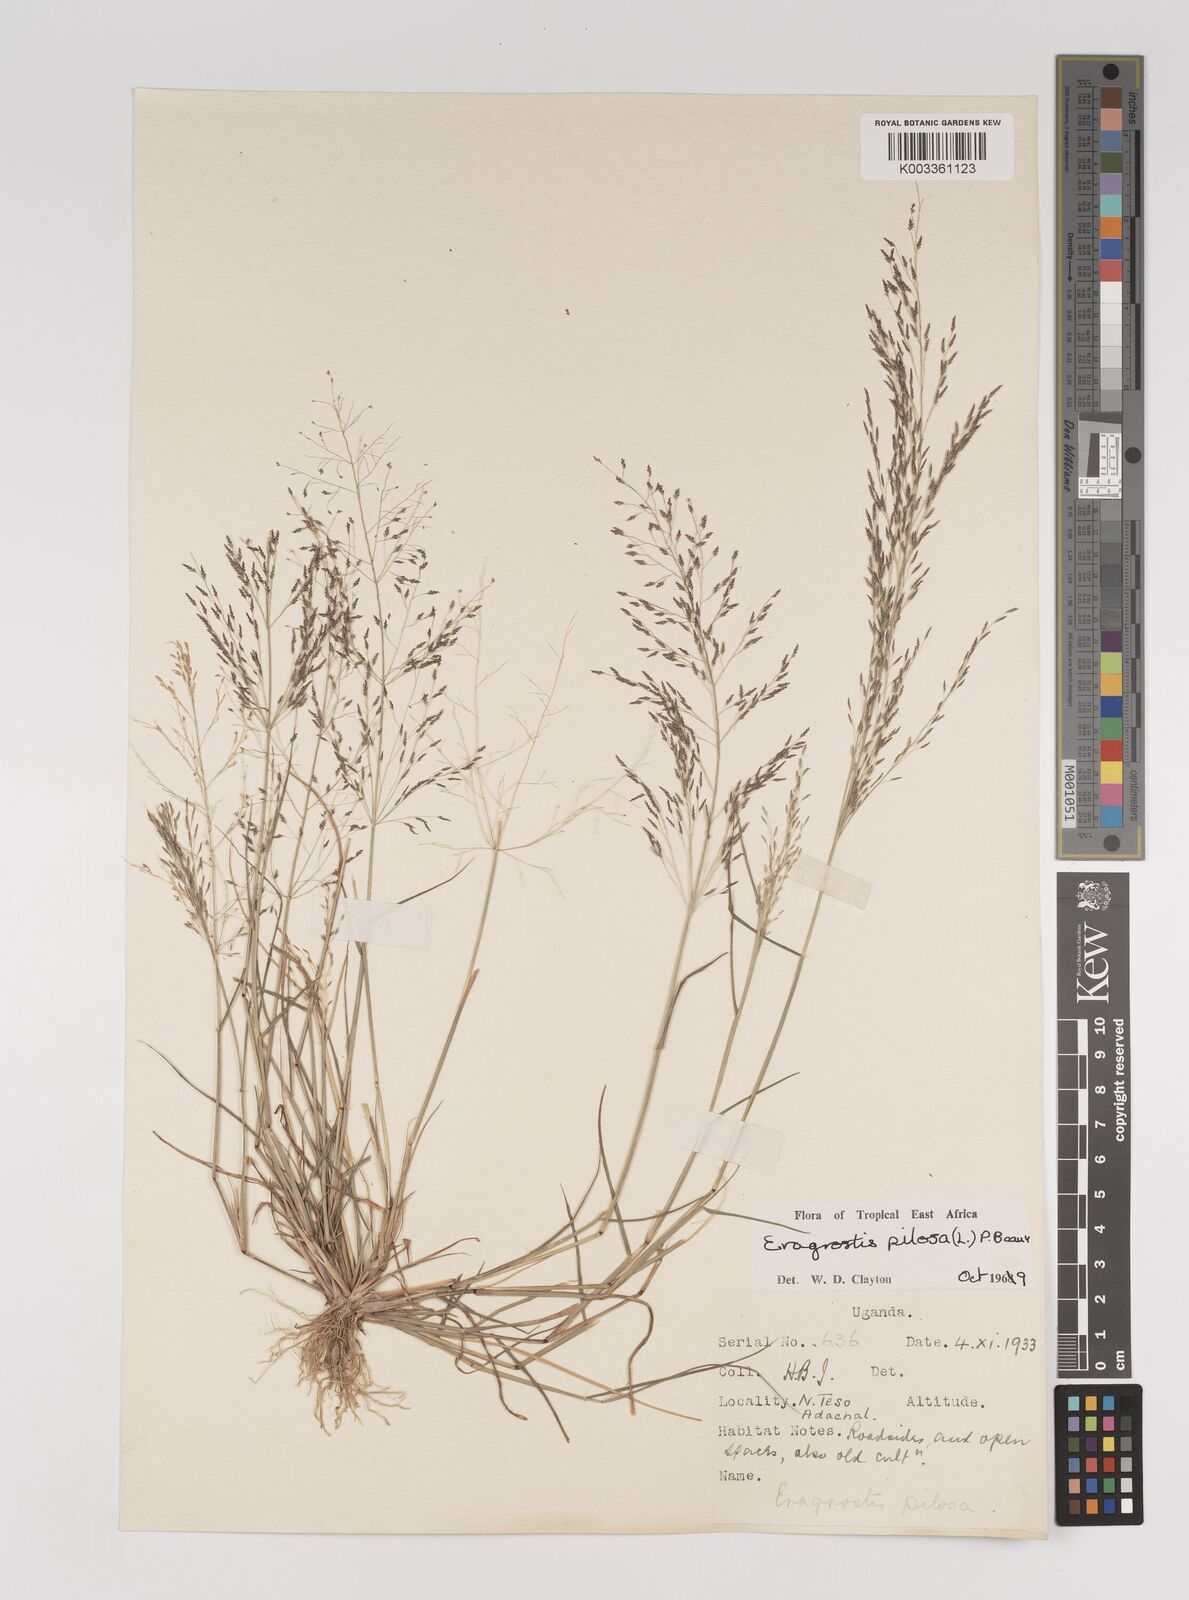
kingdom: Plantae
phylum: Tracheophyta
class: Liliopsida
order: Poales
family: Poaceae
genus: Eragrostis
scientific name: Eragrostis pilosa
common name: Indian lovegrass
